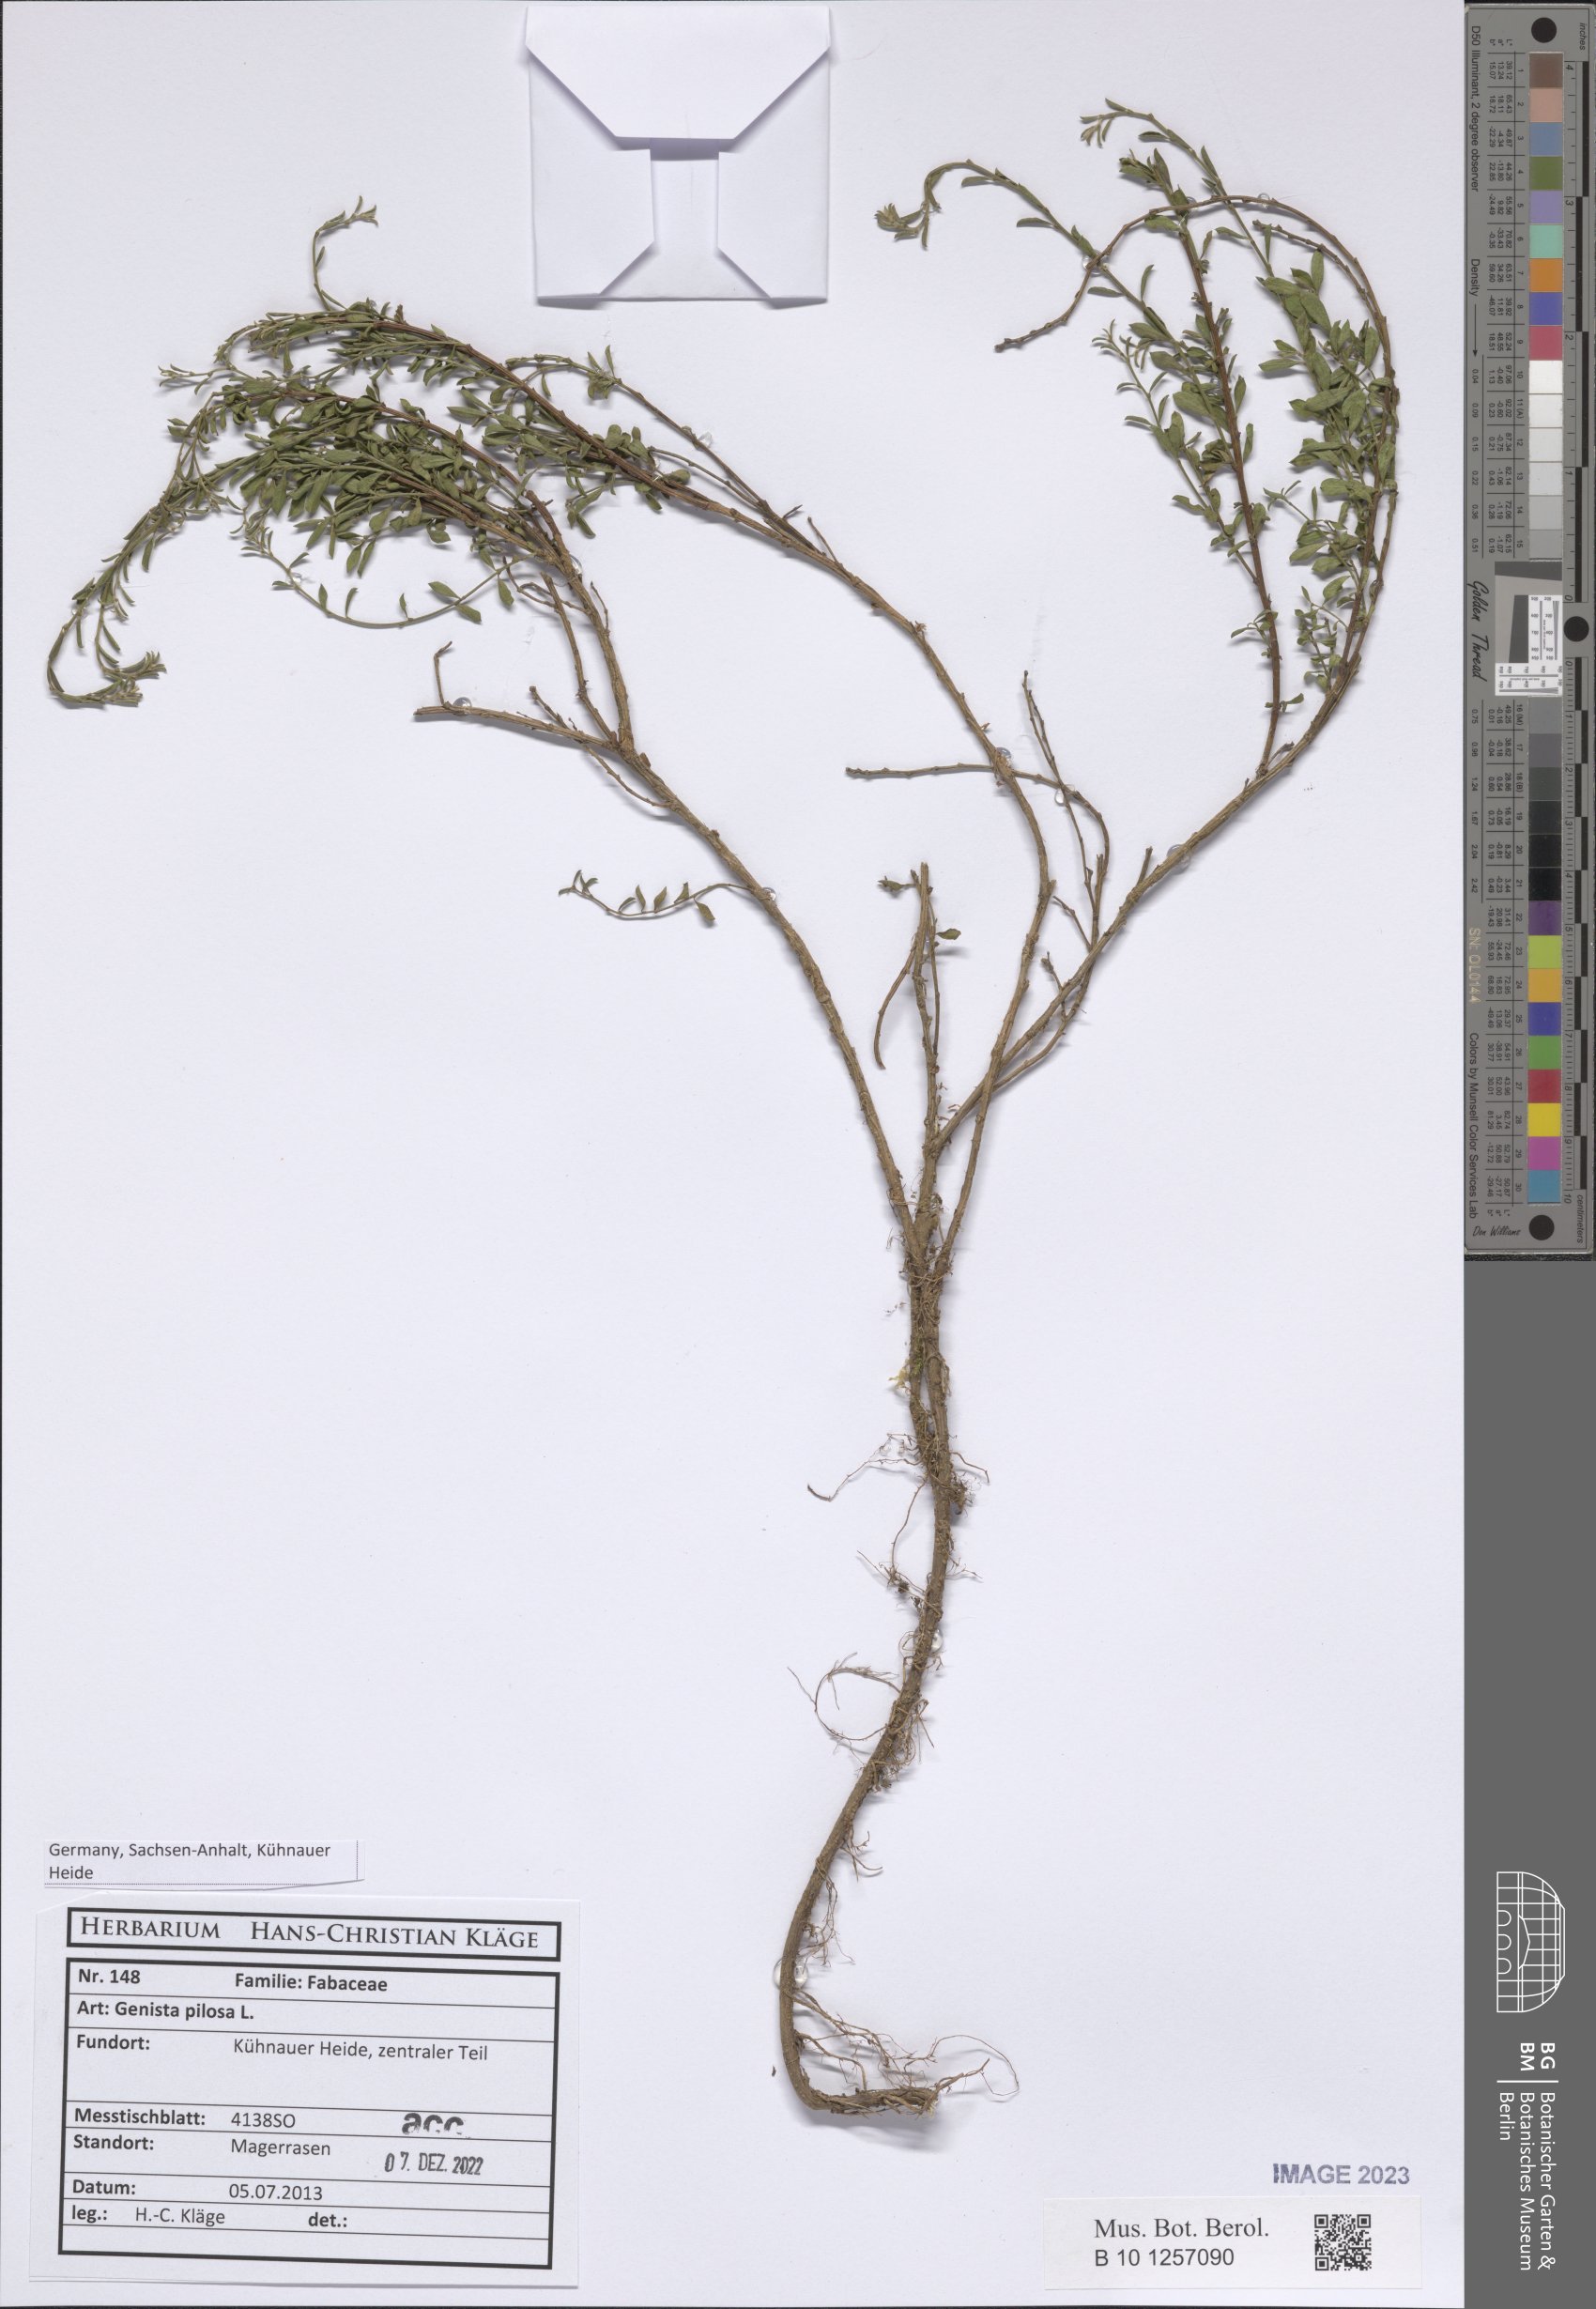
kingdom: Plantae
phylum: Tracheophyta
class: Magnoliopsida
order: Fabales
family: Fabaceae
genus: Genista
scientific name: Genista pilosa
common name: Hairy greenweed
